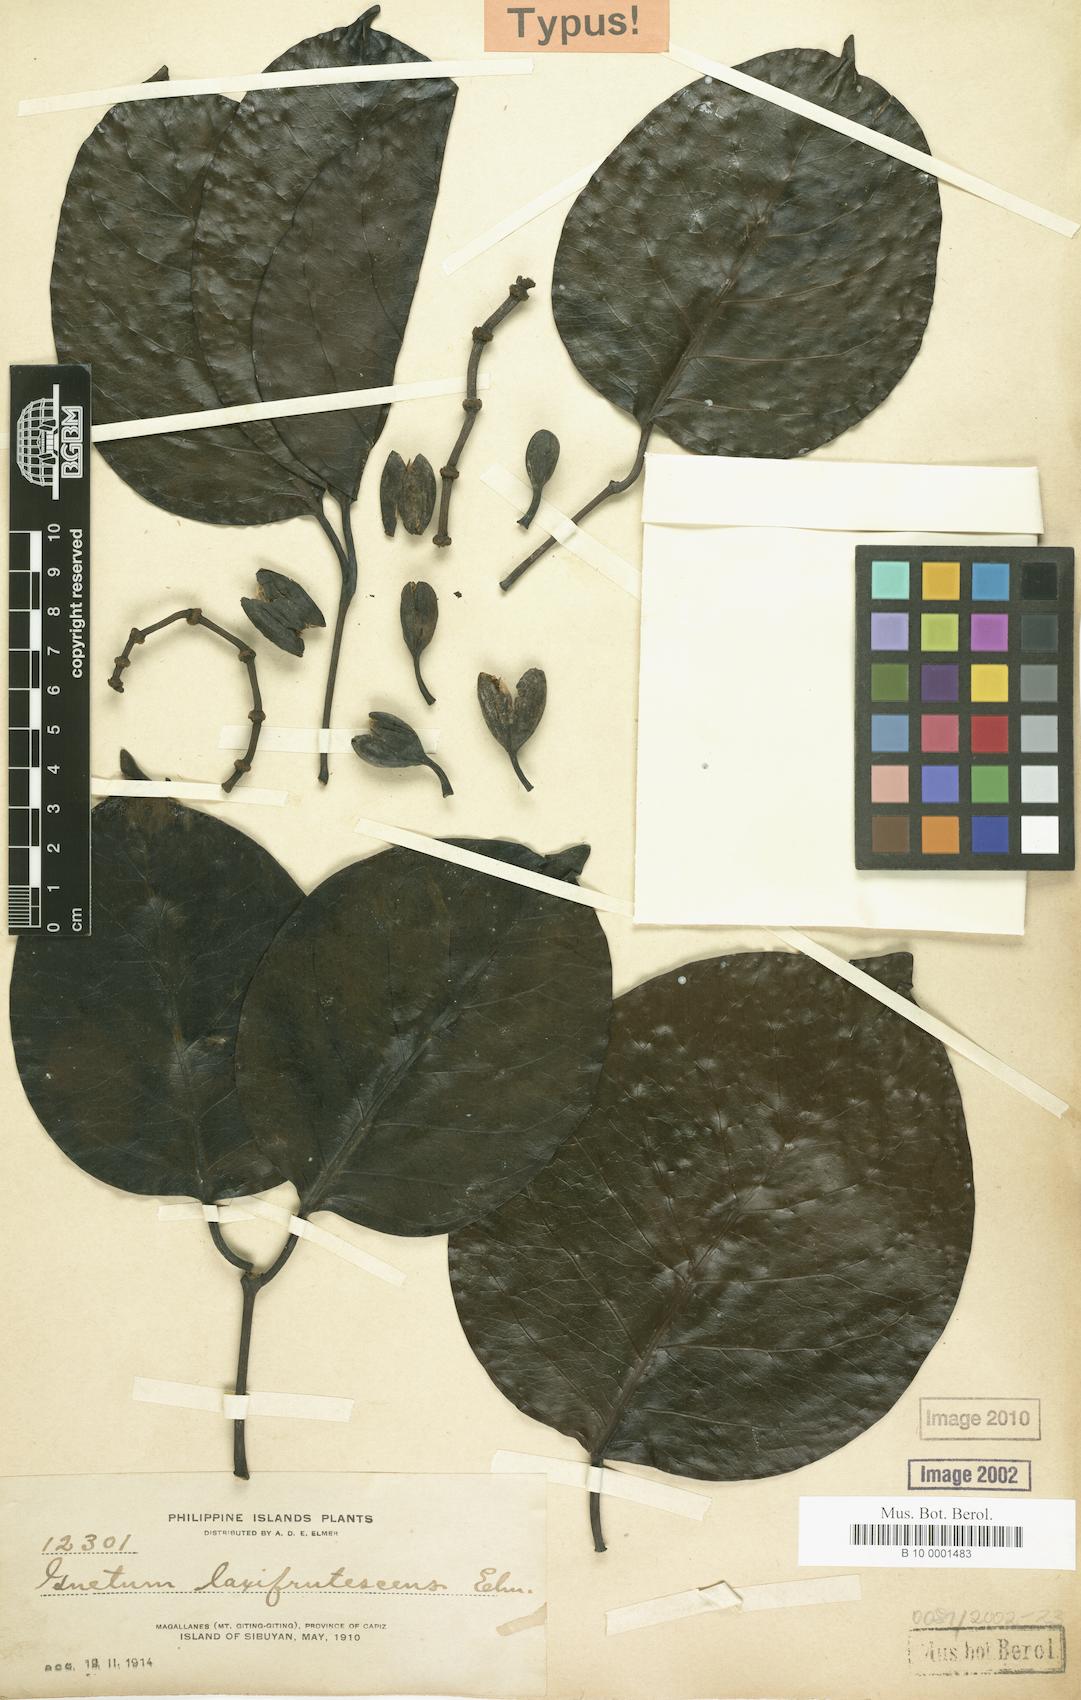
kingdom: Plantae
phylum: Tracheophyta
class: Gnetopsida
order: Gnetales
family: Gnetaceae
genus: Gnetum
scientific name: Gnetum latifolium
